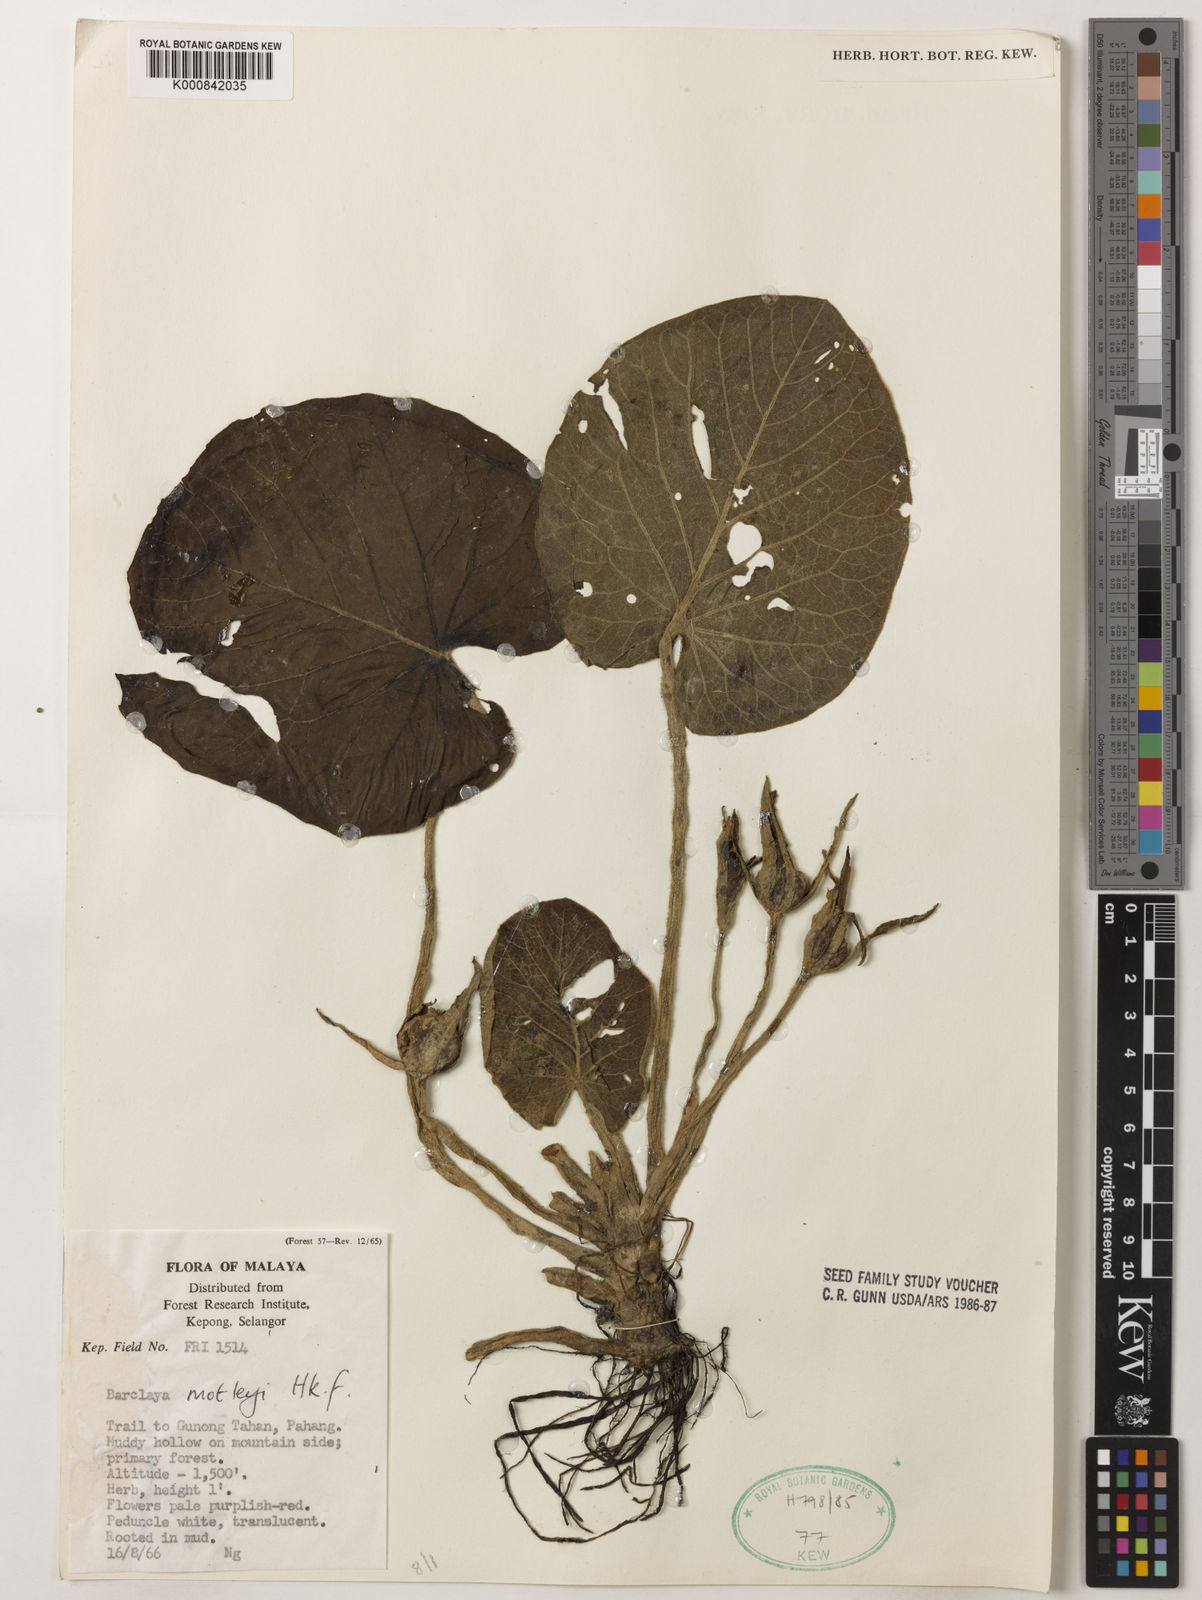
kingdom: Plantae
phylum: Tracheophyta
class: Magnoliopsida
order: Nymphaeales
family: Nymphaeaceae
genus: Barclaya
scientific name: Barclaya motleyi
